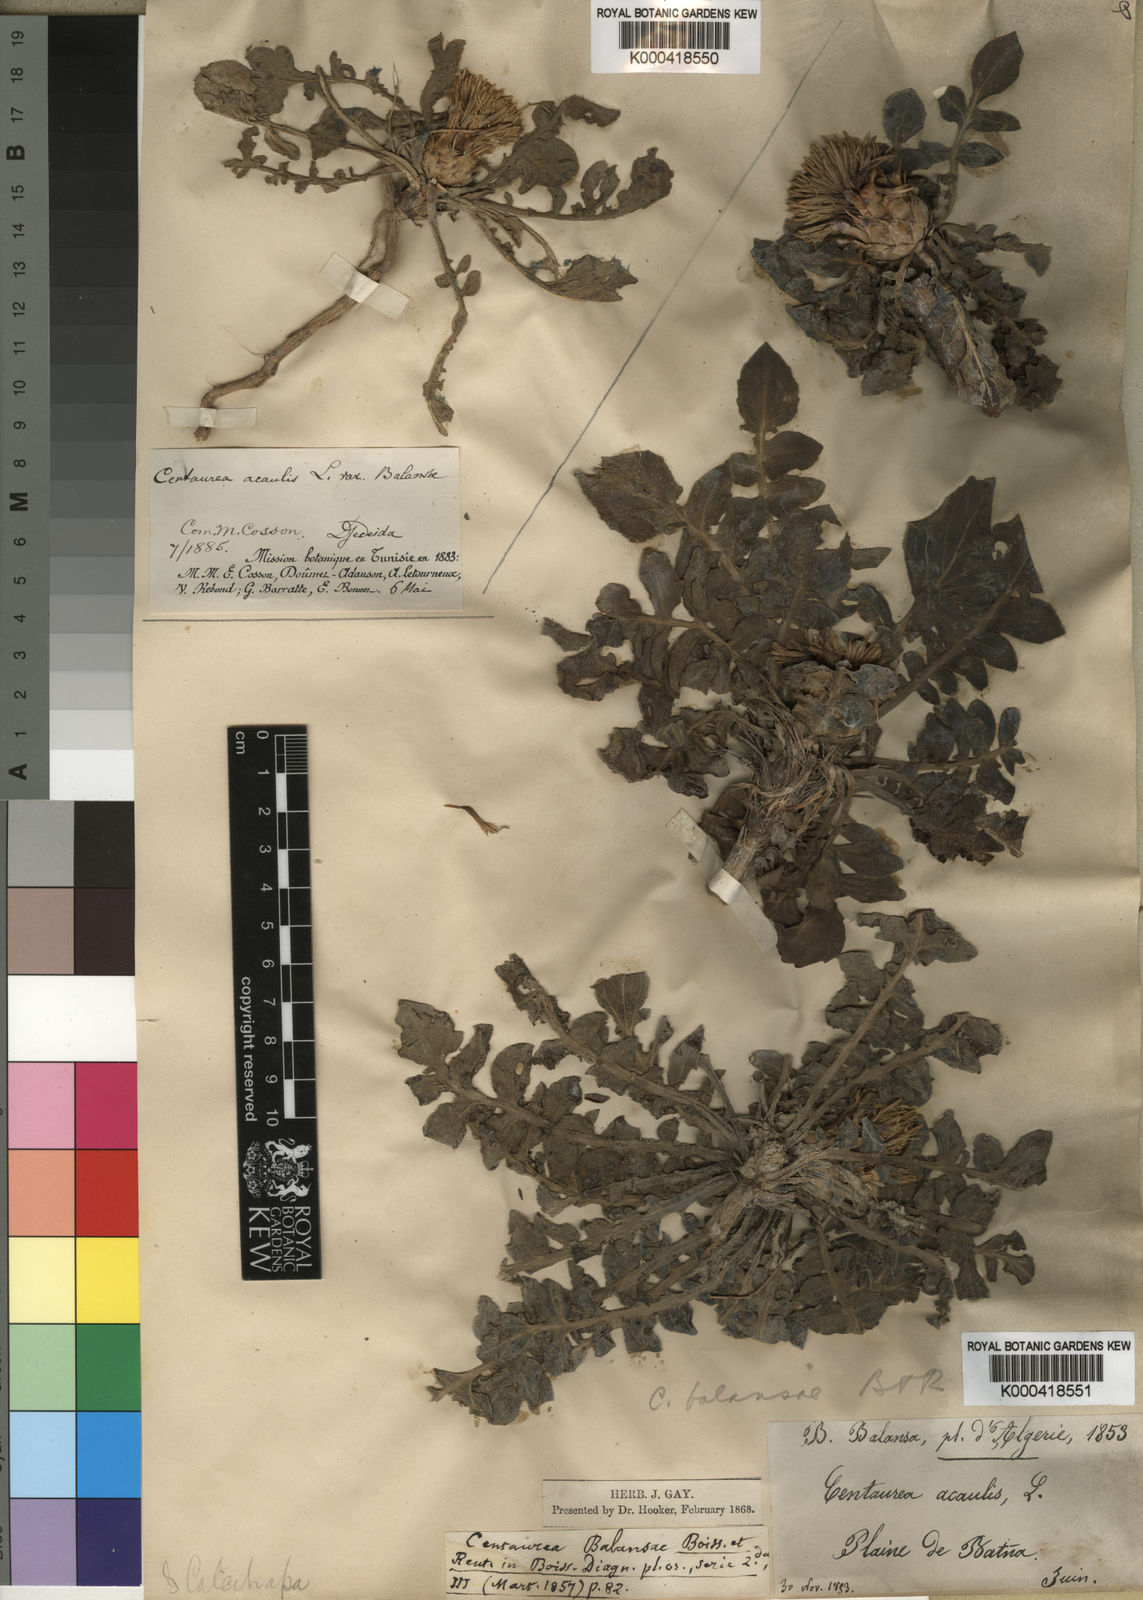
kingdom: Plantae
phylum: Tracheophyta
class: Magnoliopsida
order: Asterales
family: Asteraceae
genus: Centaurea
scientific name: Centaurea acaulis
